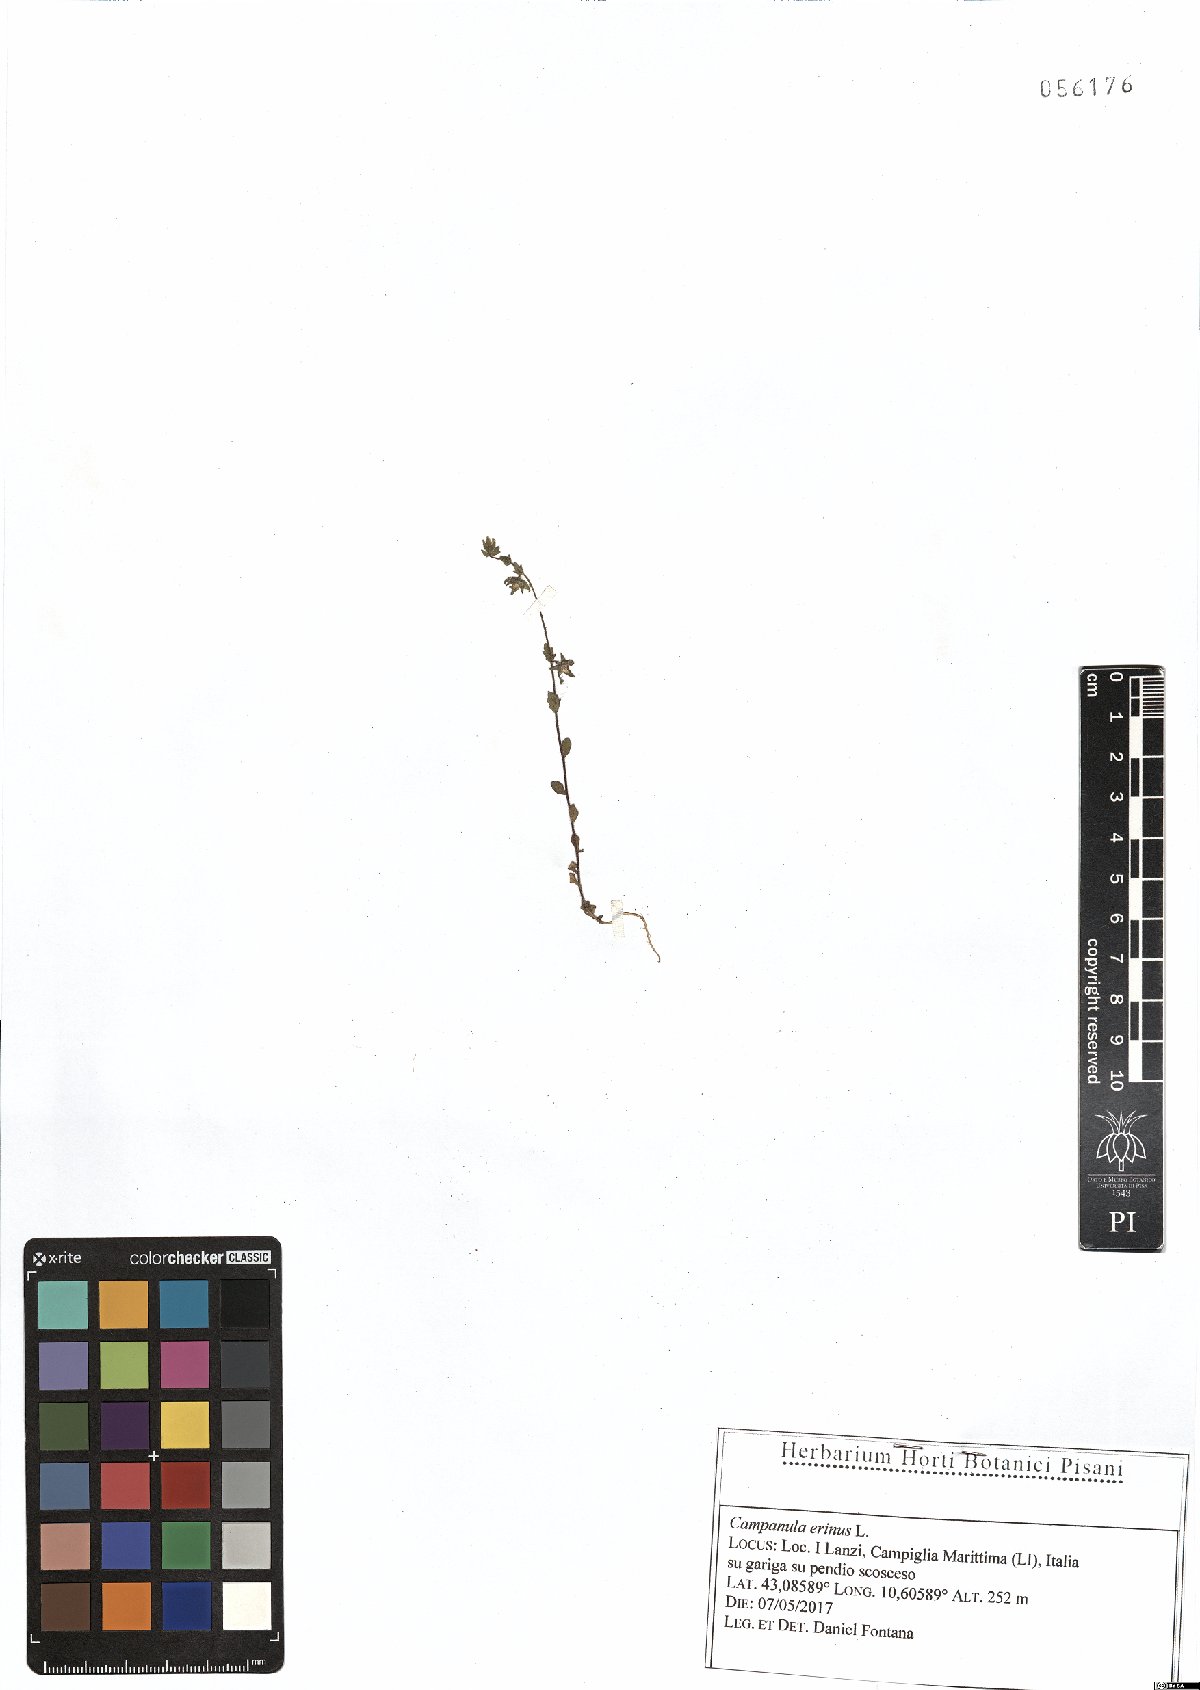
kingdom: Plantae
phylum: Tracheophyta
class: Magnoliopsida
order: Asterales
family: Campanulaceae
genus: Campanula
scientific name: Campanula erinus
